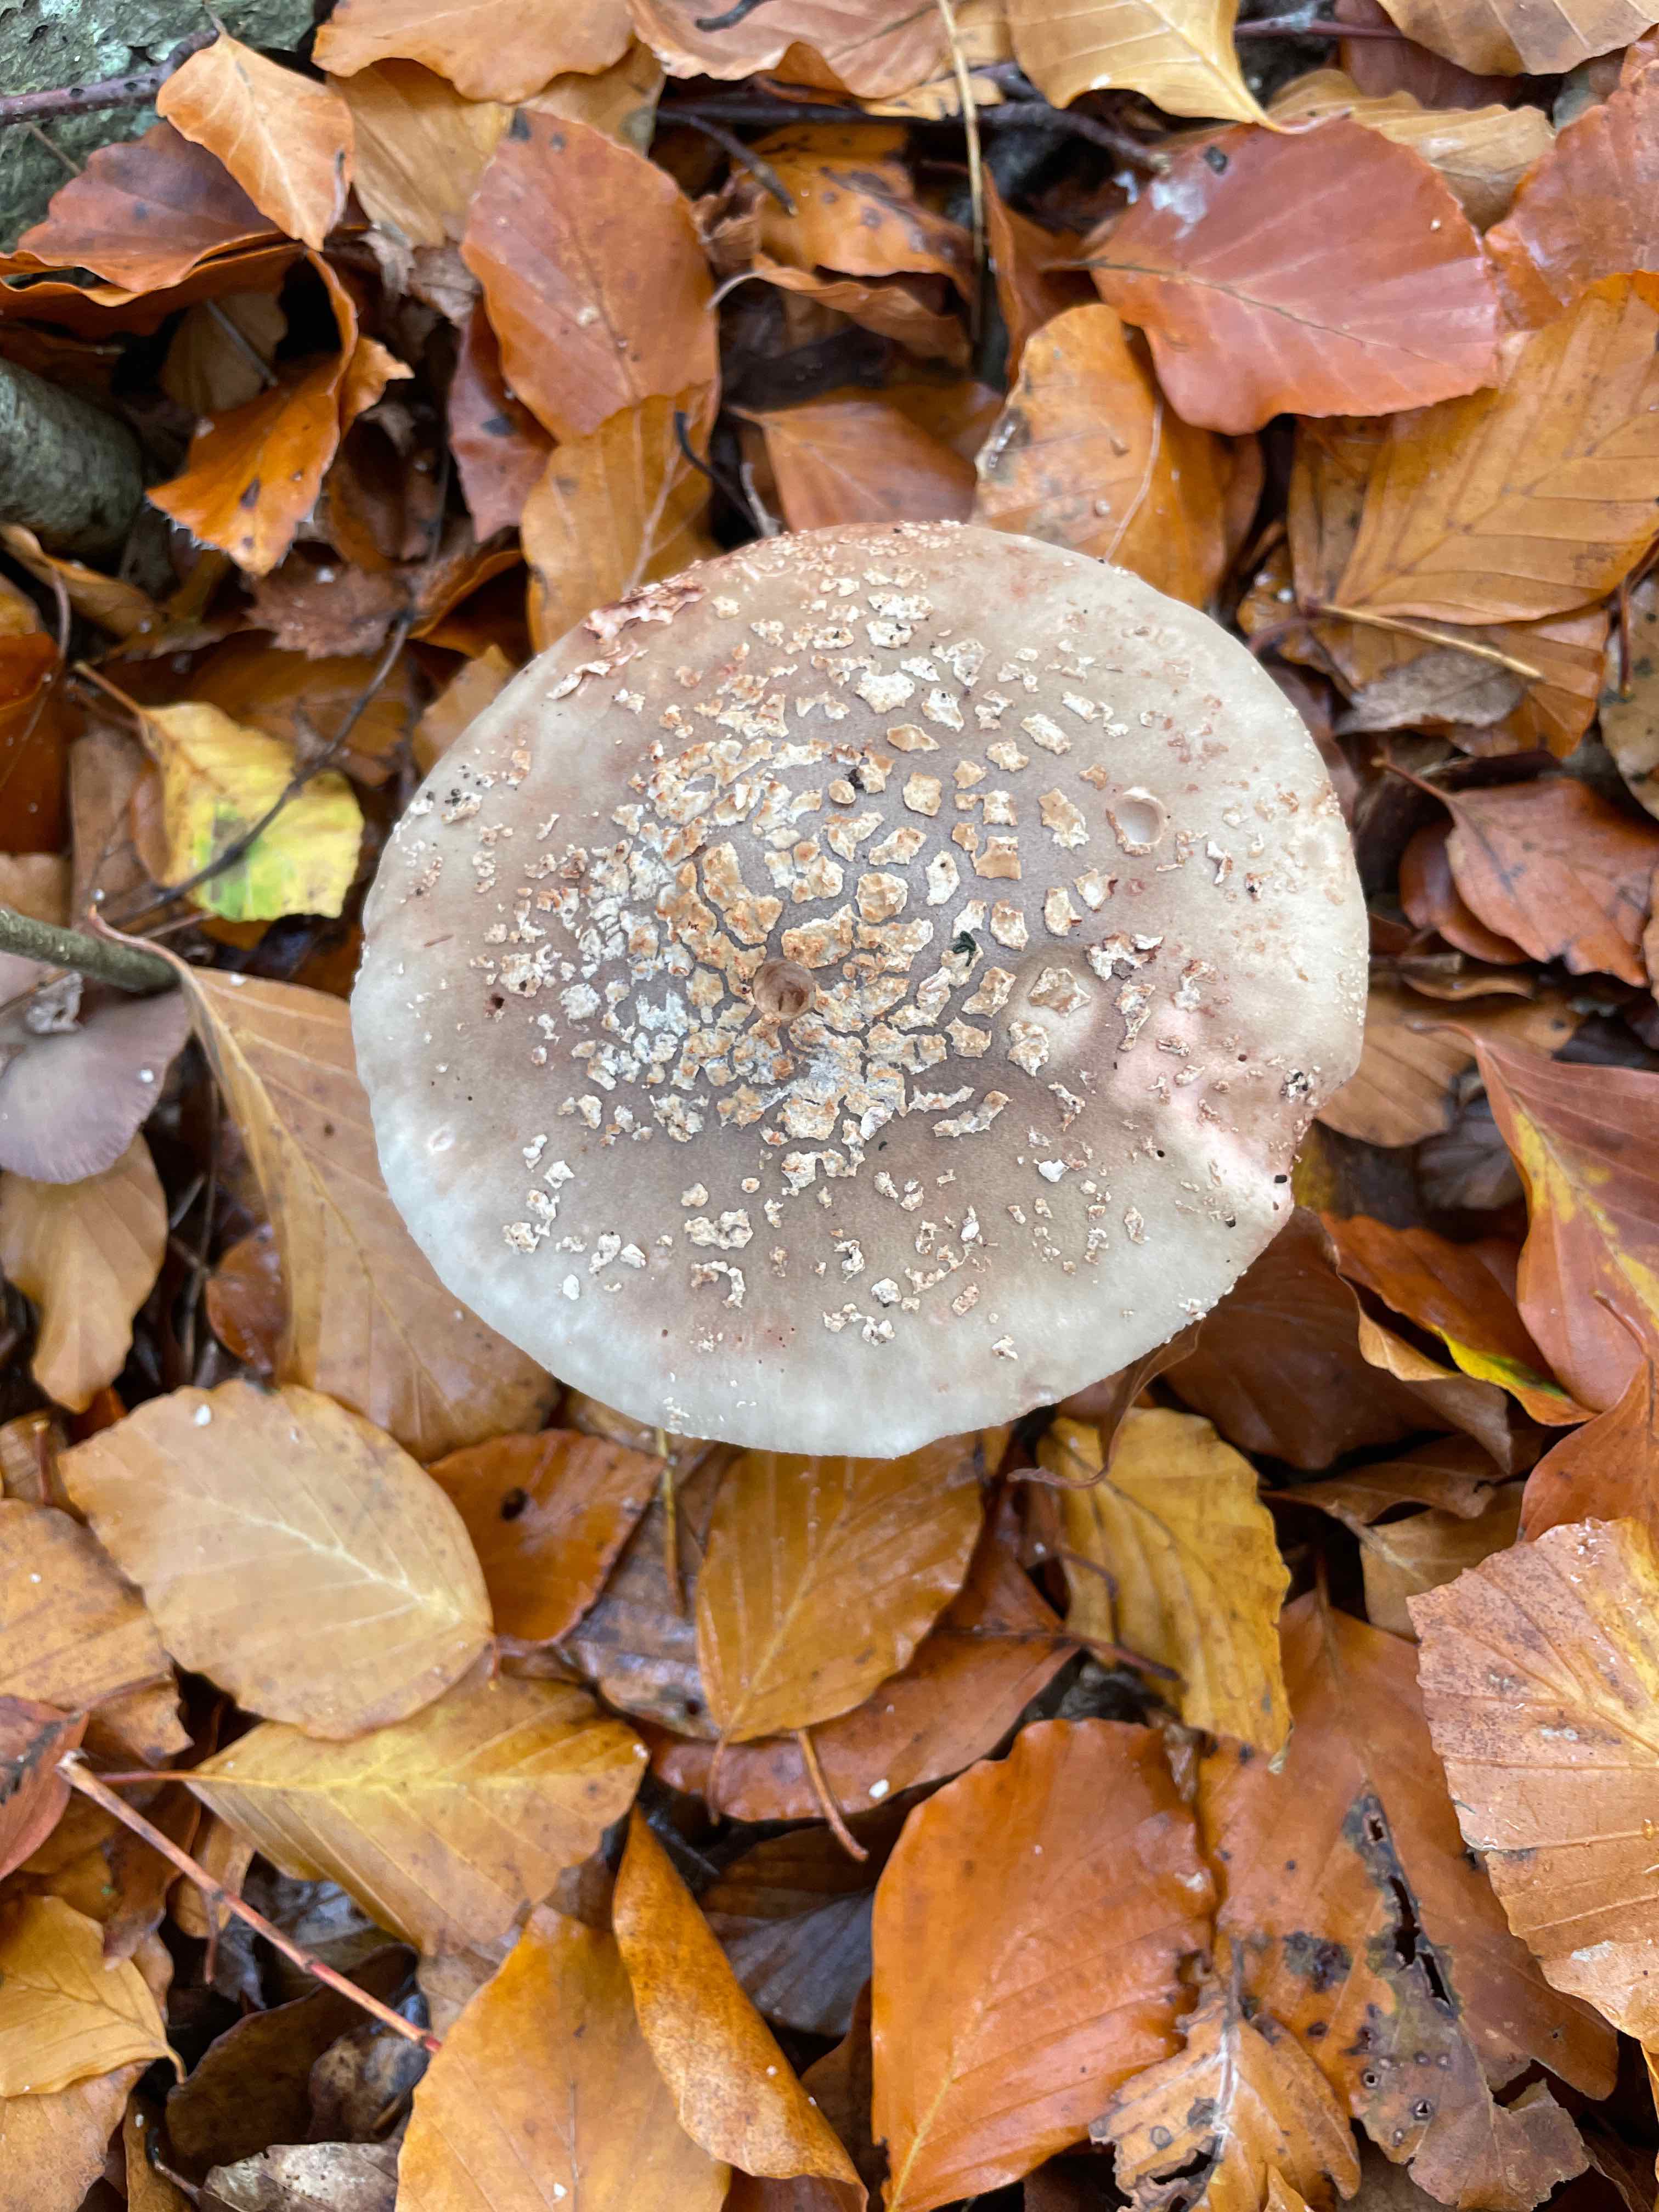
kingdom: Fungi
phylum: Basidiomycota
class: Agaricomycetes
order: Agaricales
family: Amanitaceae
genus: Amanita
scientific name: Amanita rubescens
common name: rødmende fluesvamp
